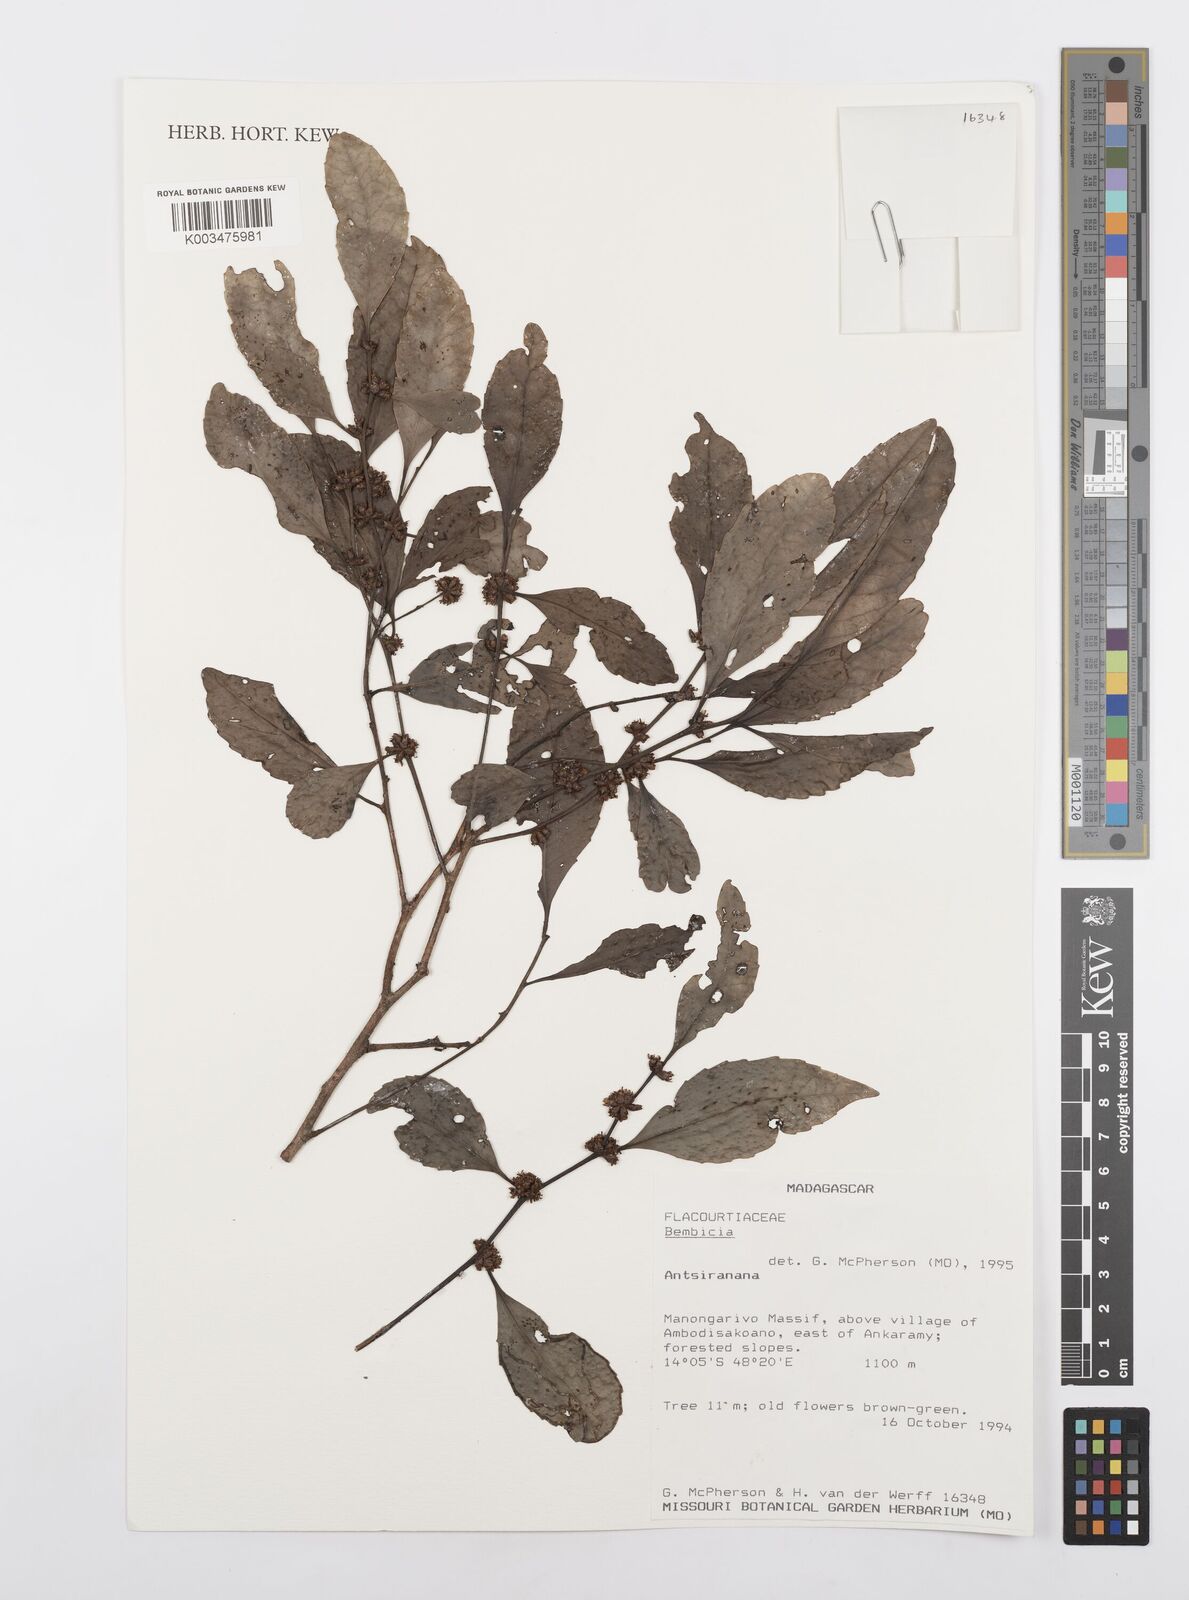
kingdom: Plantae
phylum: Tracheophyta
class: Magnoliopsida
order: Malpighiales
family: Salicaceae
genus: Bembicia
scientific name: Bembicia
